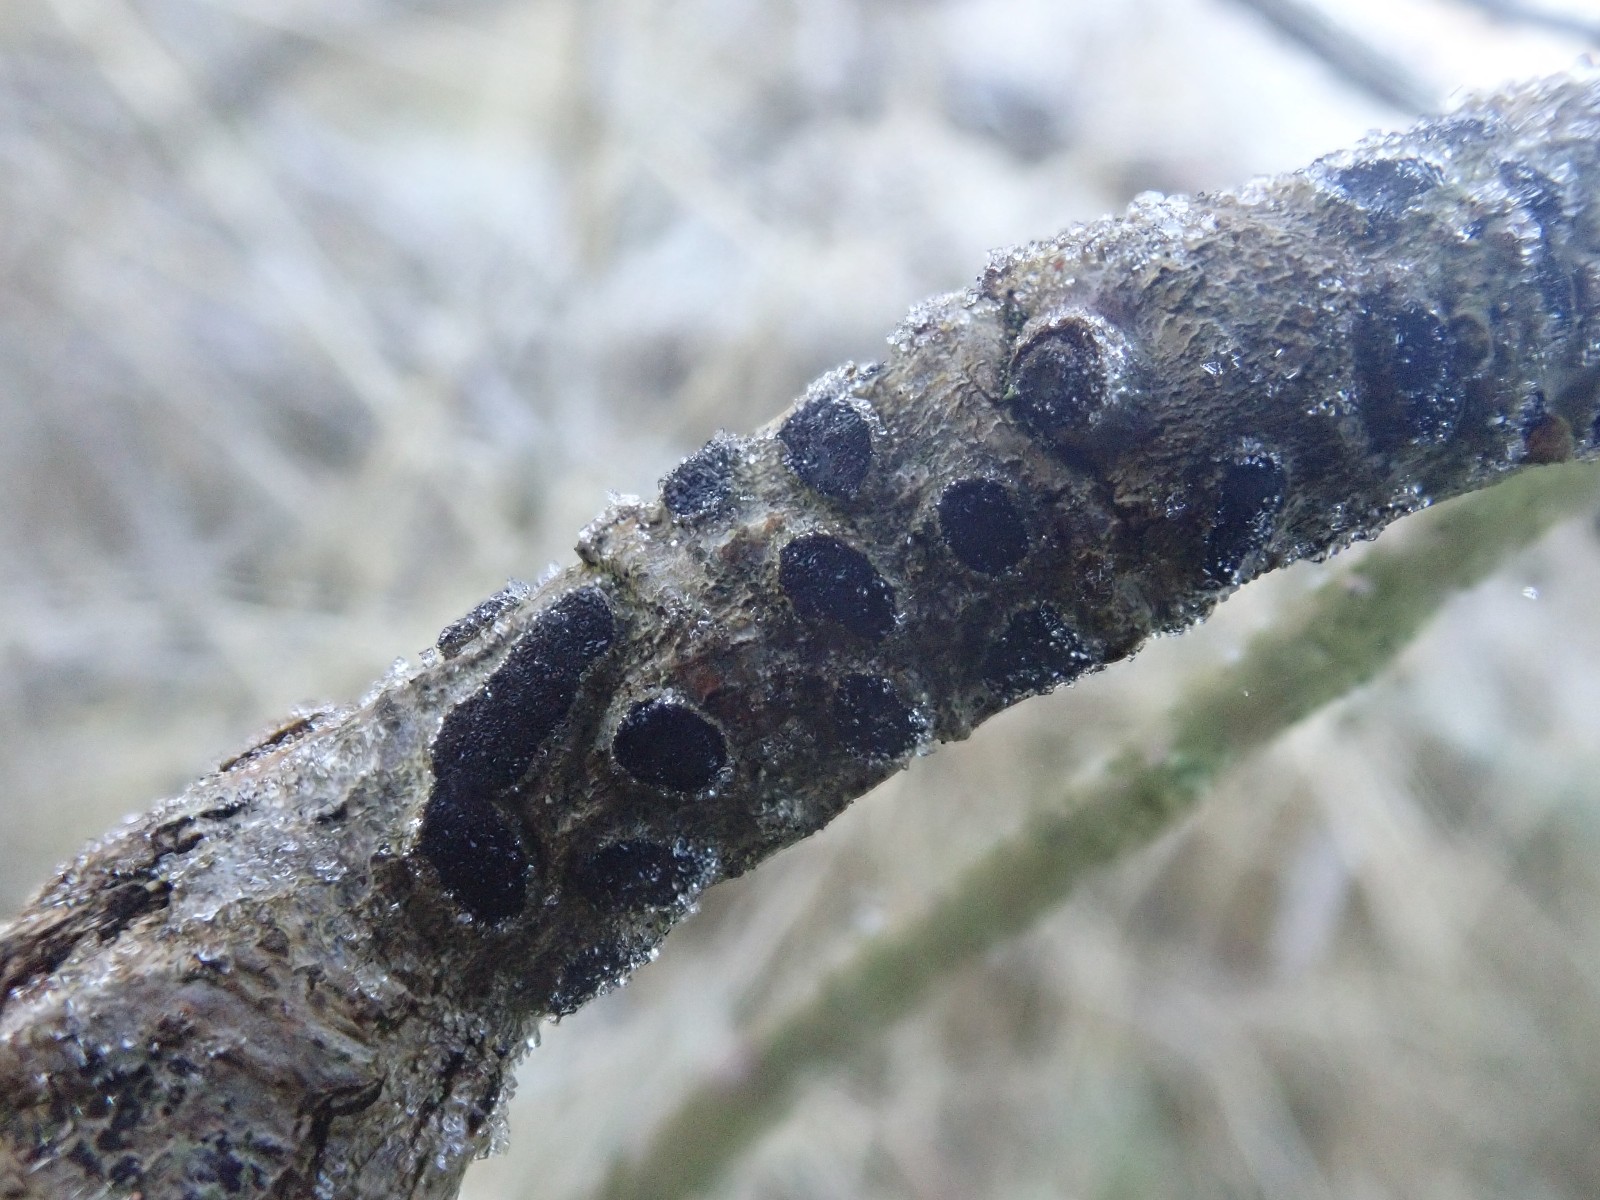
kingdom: Fungi
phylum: Ascomycota
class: Sordariomycetes
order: Xylariales
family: Diatrypaceae
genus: Diatrype
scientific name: Diatrype bullata
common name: pile-kulskorpe
